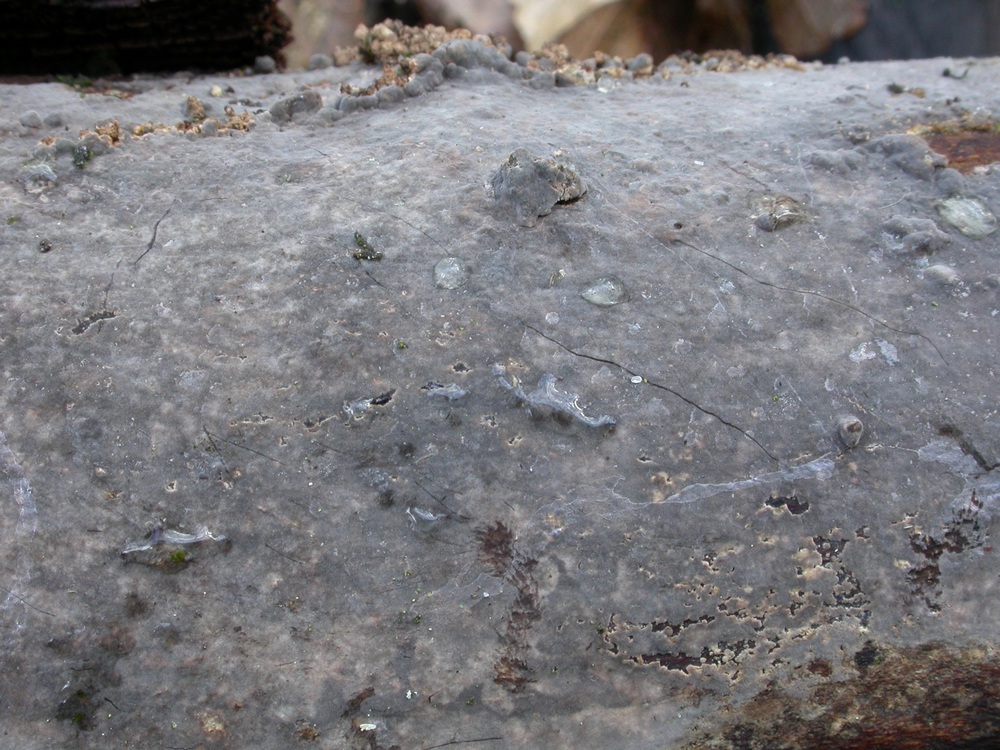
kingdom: Fungi
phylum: Basidiomycota
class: Agaricomycetes
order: Russulales
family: Peniophoraceae
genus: Peniophora
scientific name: Peniophora cinerea
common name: grå voksskind
